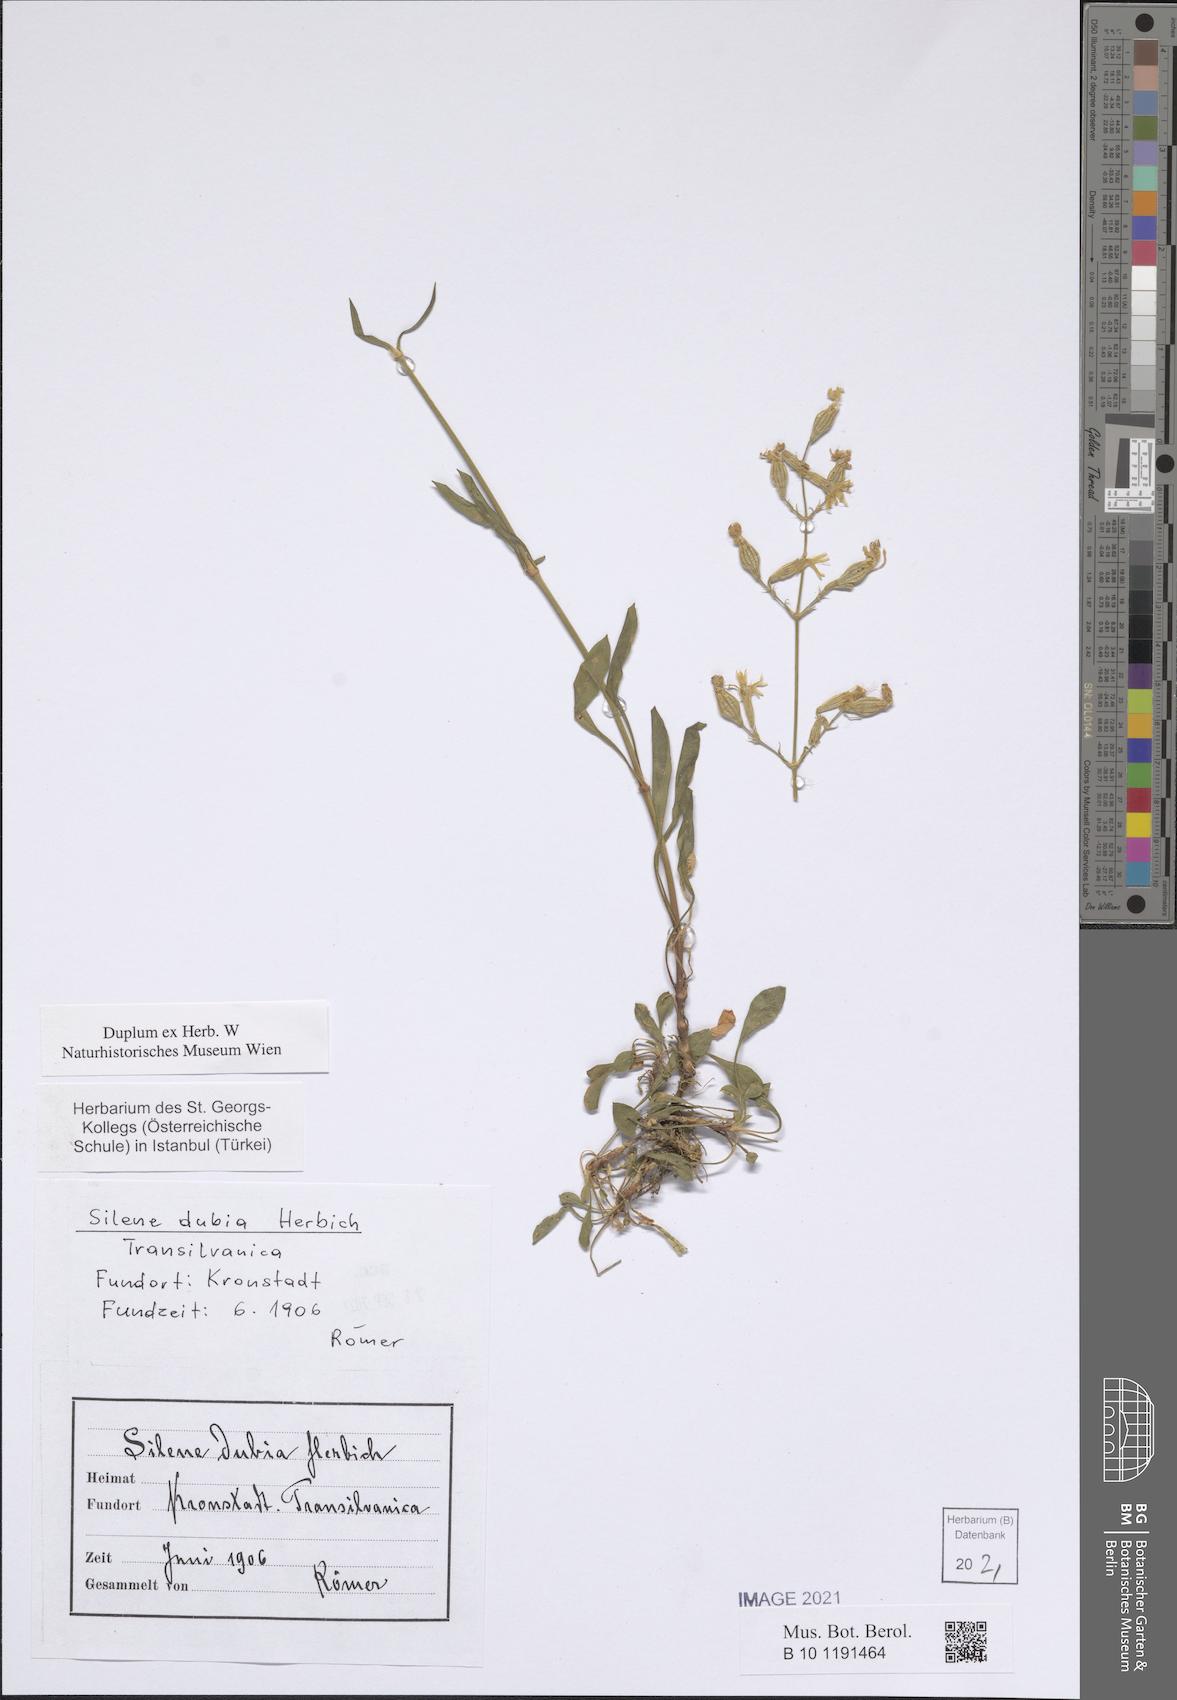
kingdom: Plantae
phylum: Tracheophyta
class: Magnoliopsida
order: Caryophyllales
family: Caryophyllaceae
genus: Silene
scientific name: Silene nutans
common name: Nottingham catchfly
